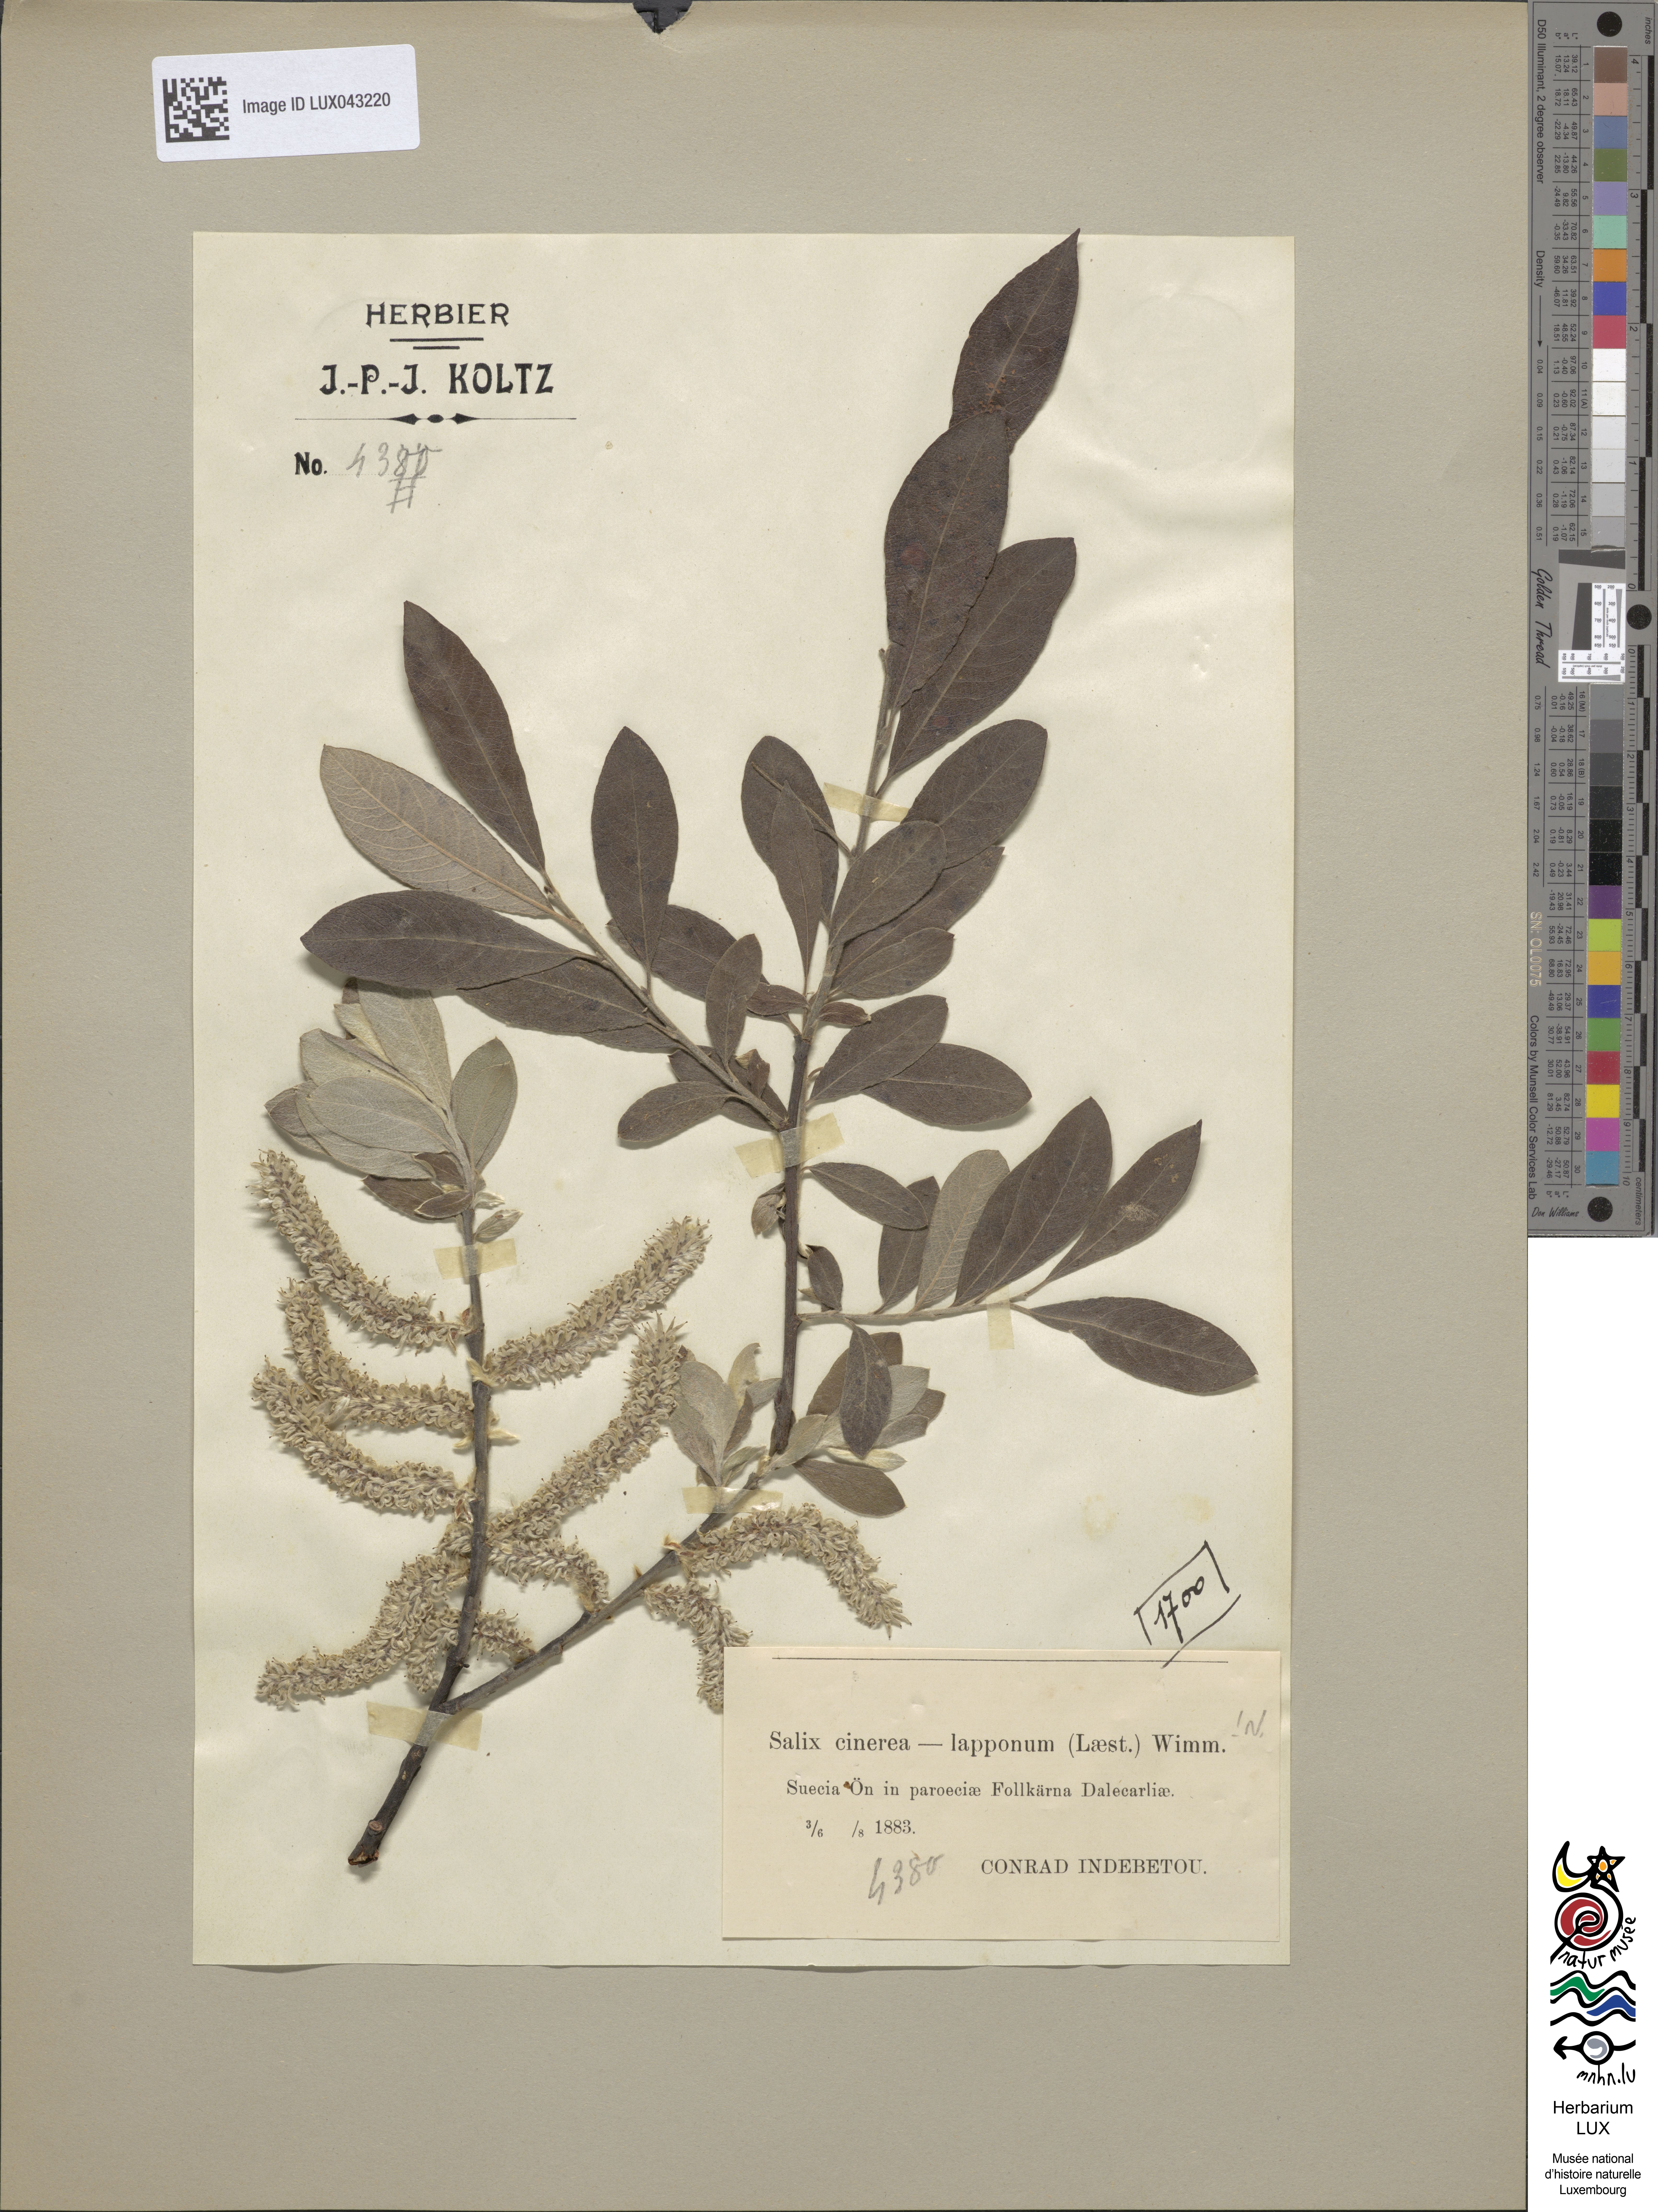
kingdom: Plantae
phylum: Tracheophyta
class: Magnoliopsida
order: Malpighiales
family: Salicaceae
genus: Salix
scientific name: Salix
